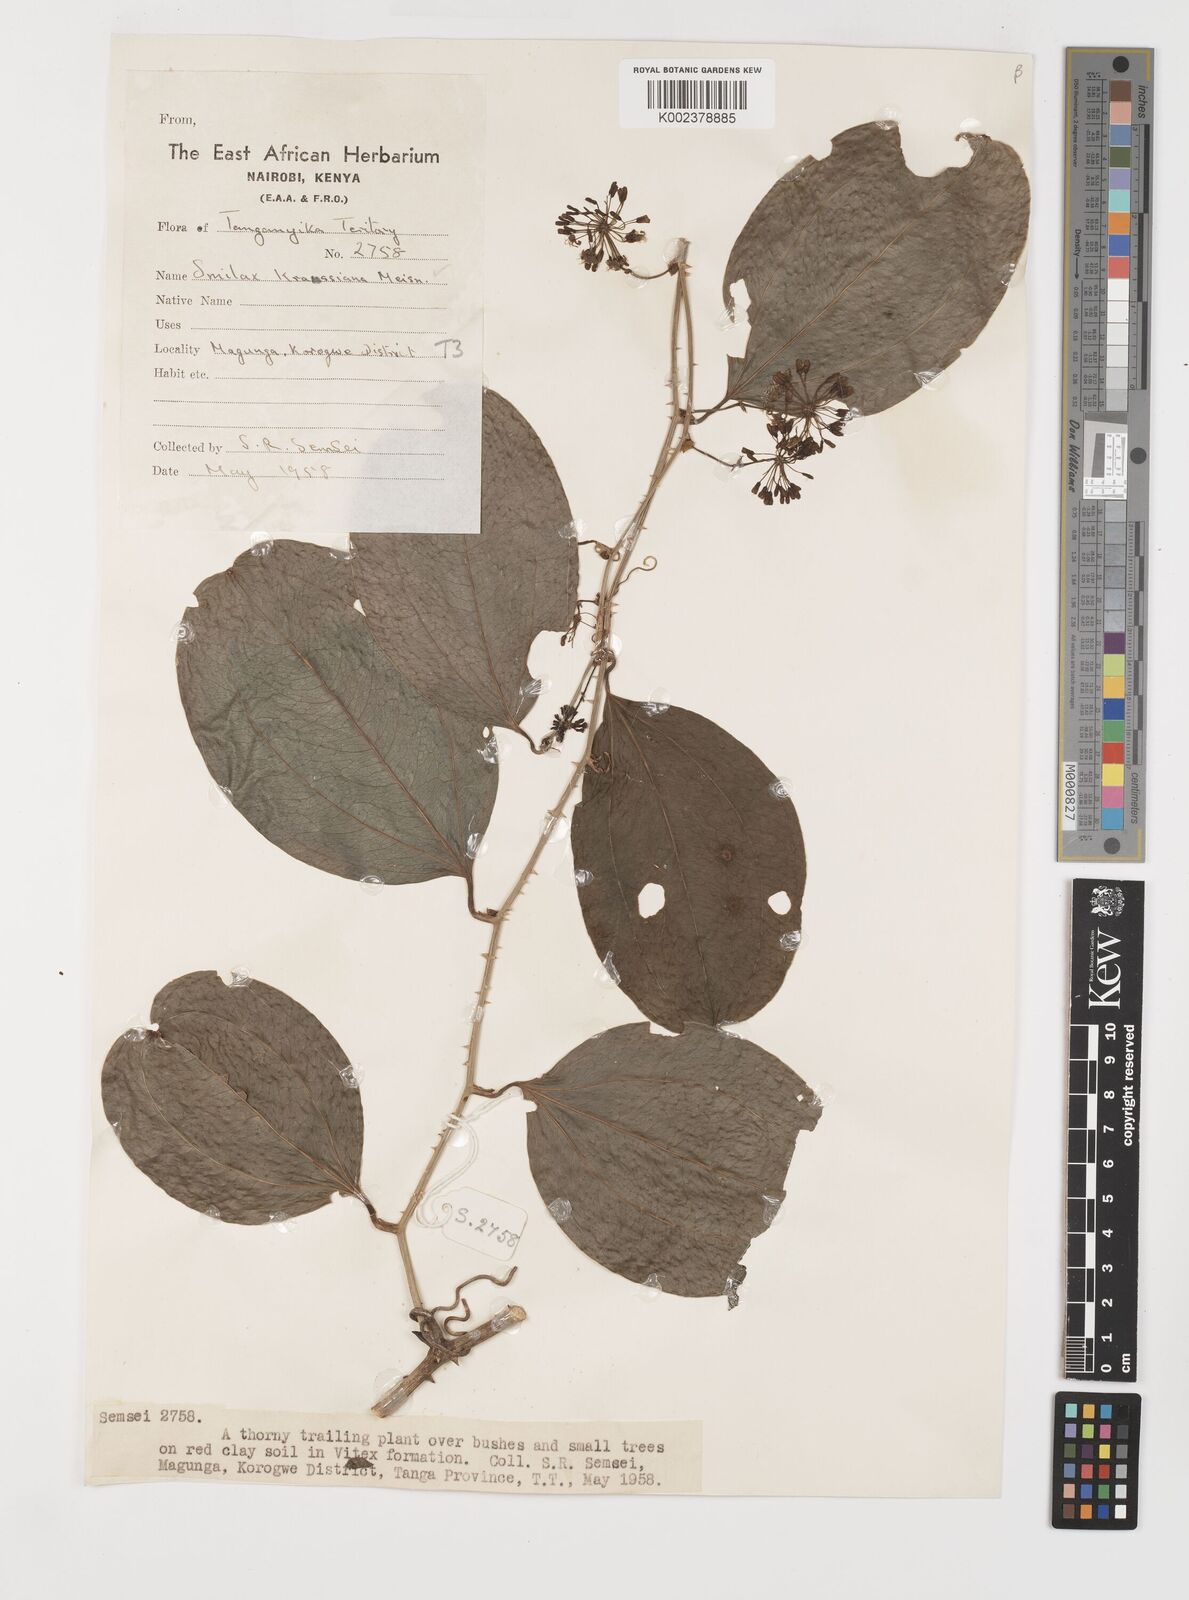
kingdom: Plantae
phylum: Tracheophyta
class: Liliopsida
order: Liliales
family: Smilacaceae
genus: Smilax
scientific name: Smilax anceps
